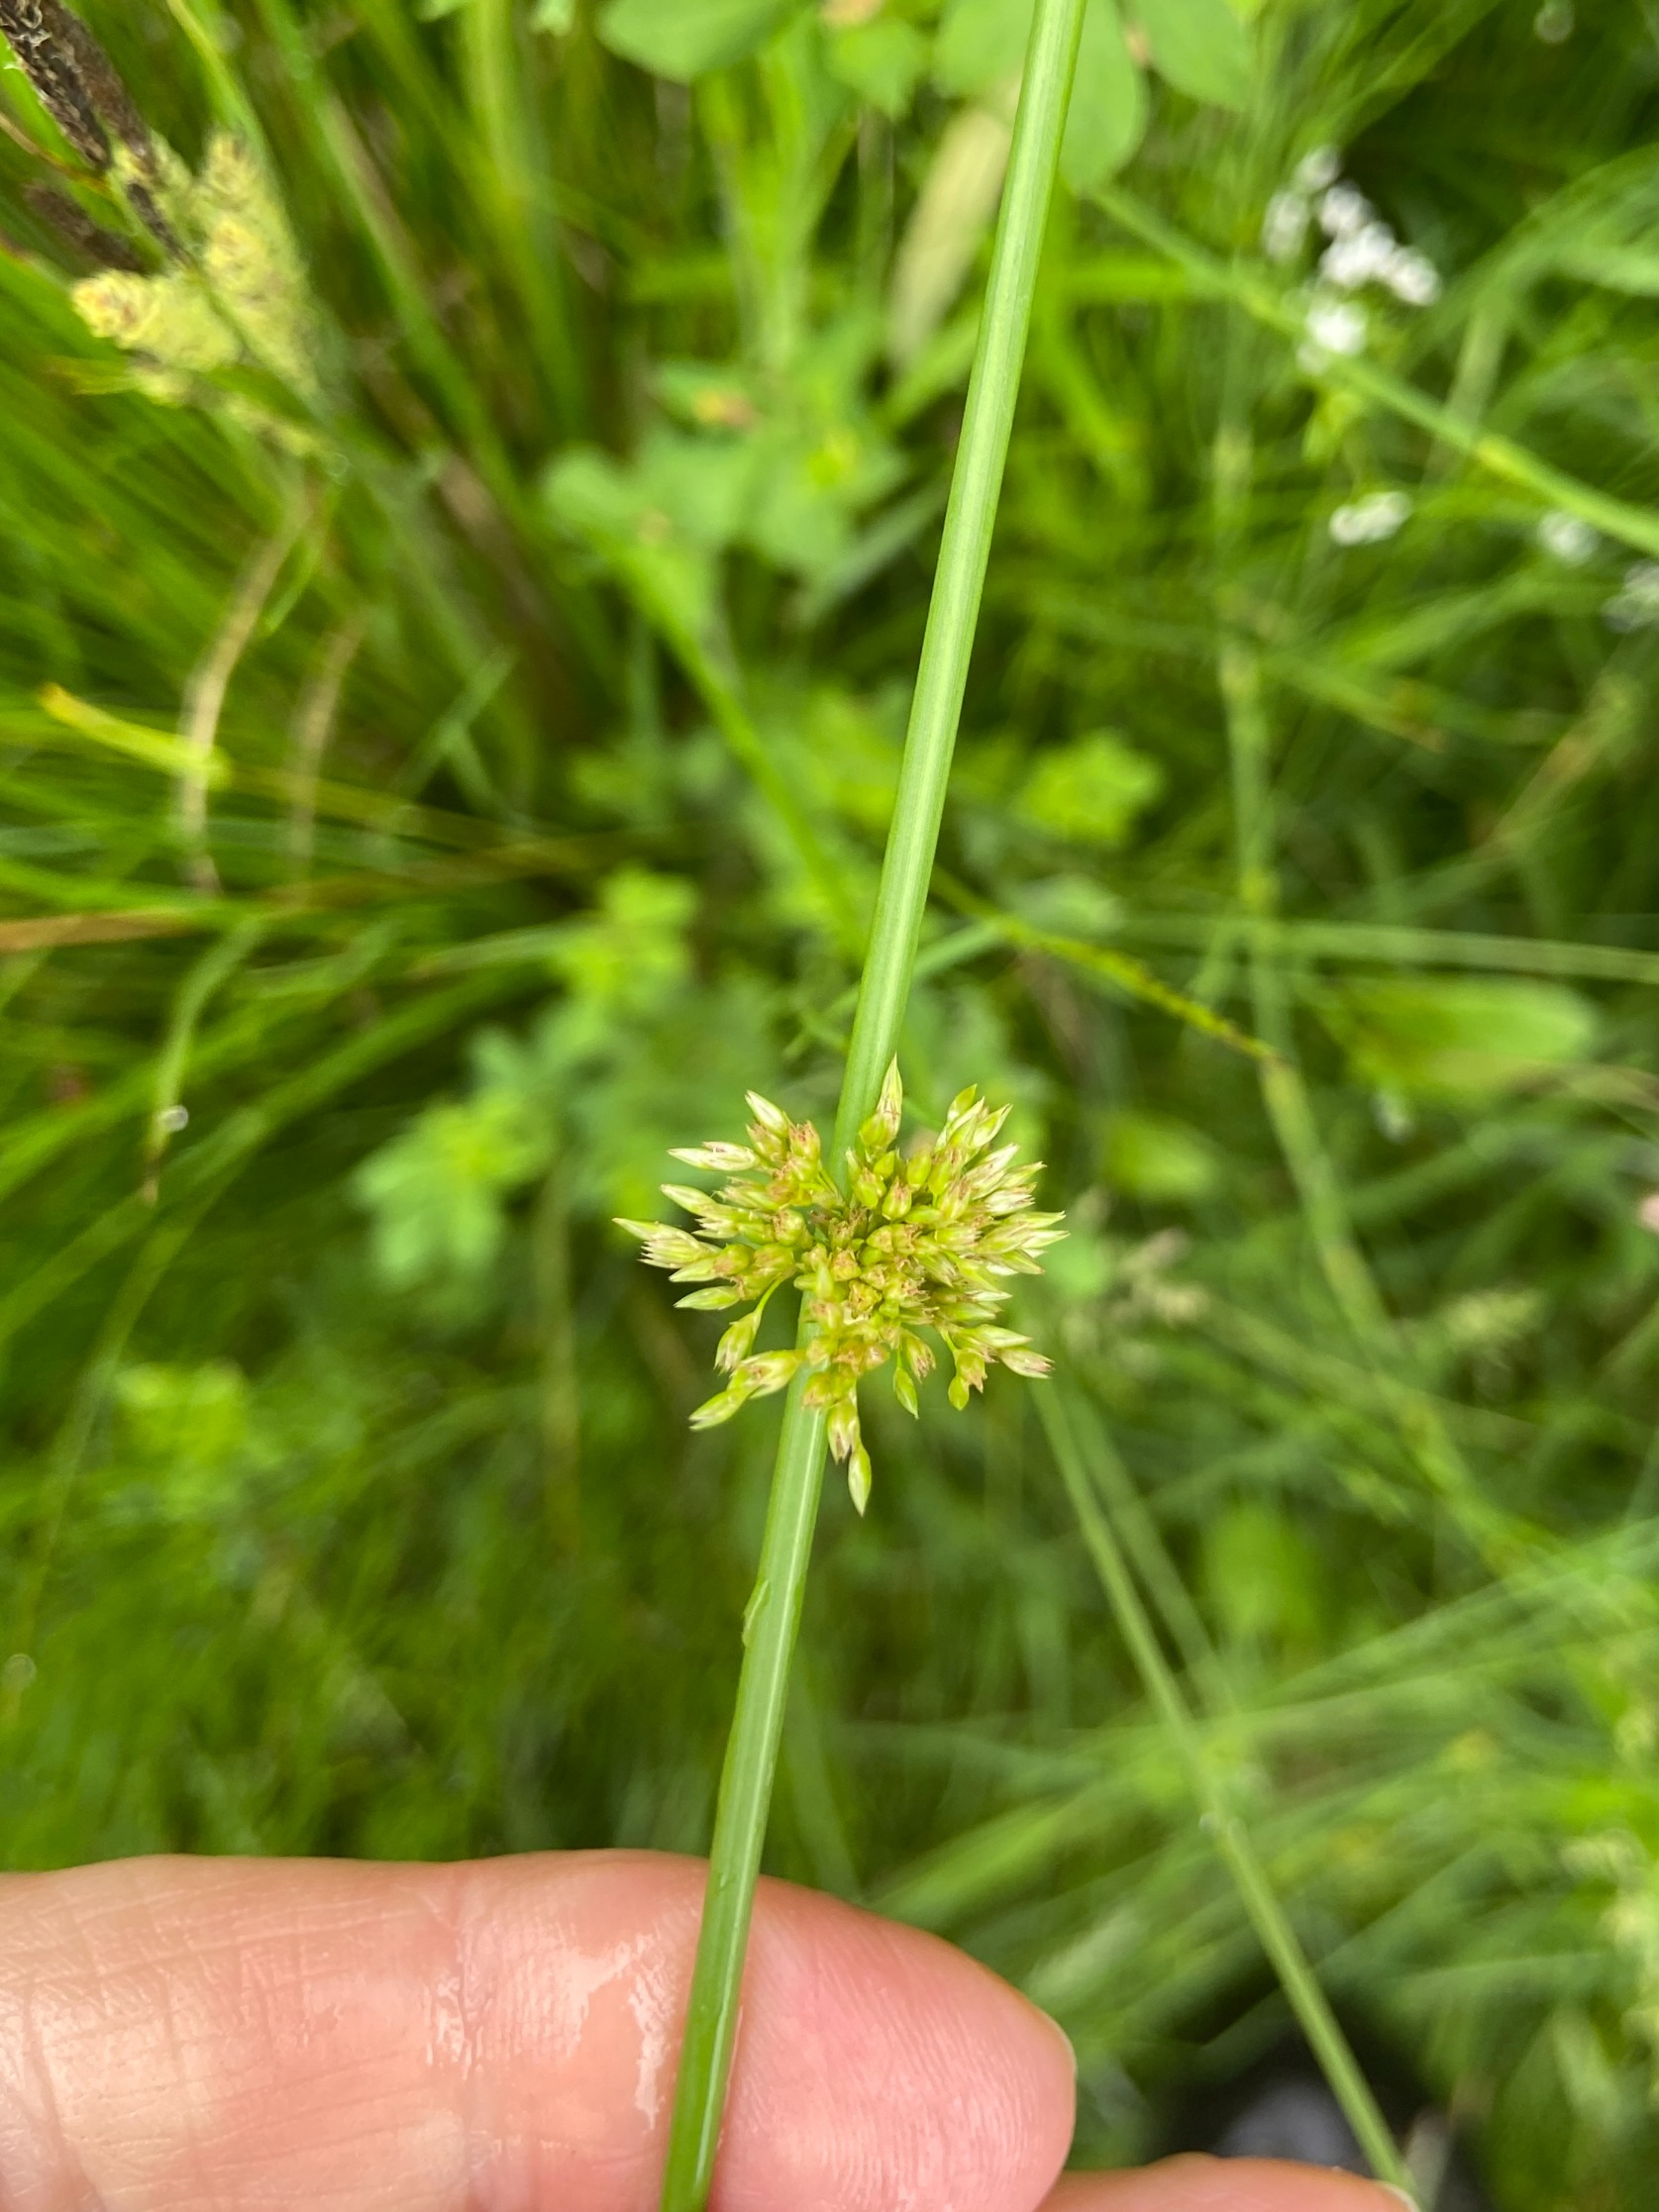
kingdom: Plantae
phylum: Tracheophyta
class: Liliopsida
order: Poales
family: Juncaceae
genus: Juncus
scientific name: Juncus effusus
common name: Lyse-siv
